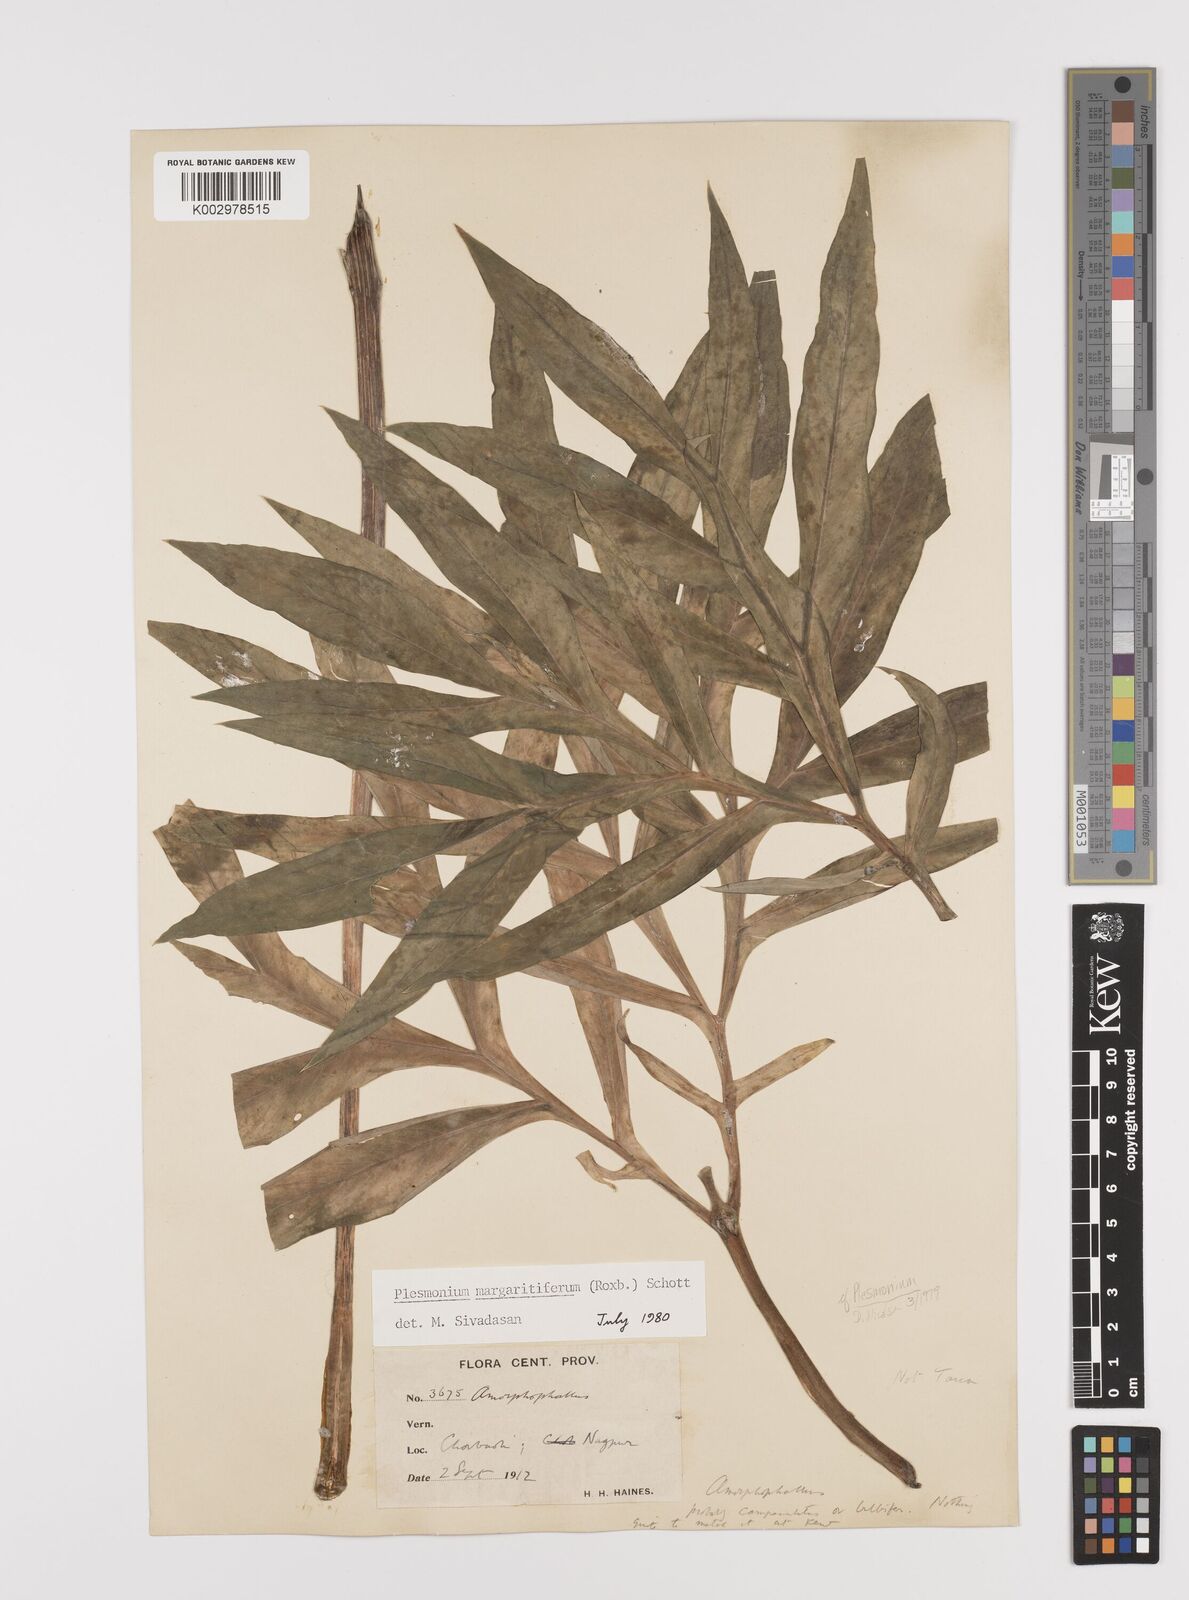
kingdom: Plantae
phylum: Tracheophyta
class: Liliopsida
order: Alismatales
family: Araceae
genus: Amorphophallus
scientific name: Amorphophallus margaritifer
